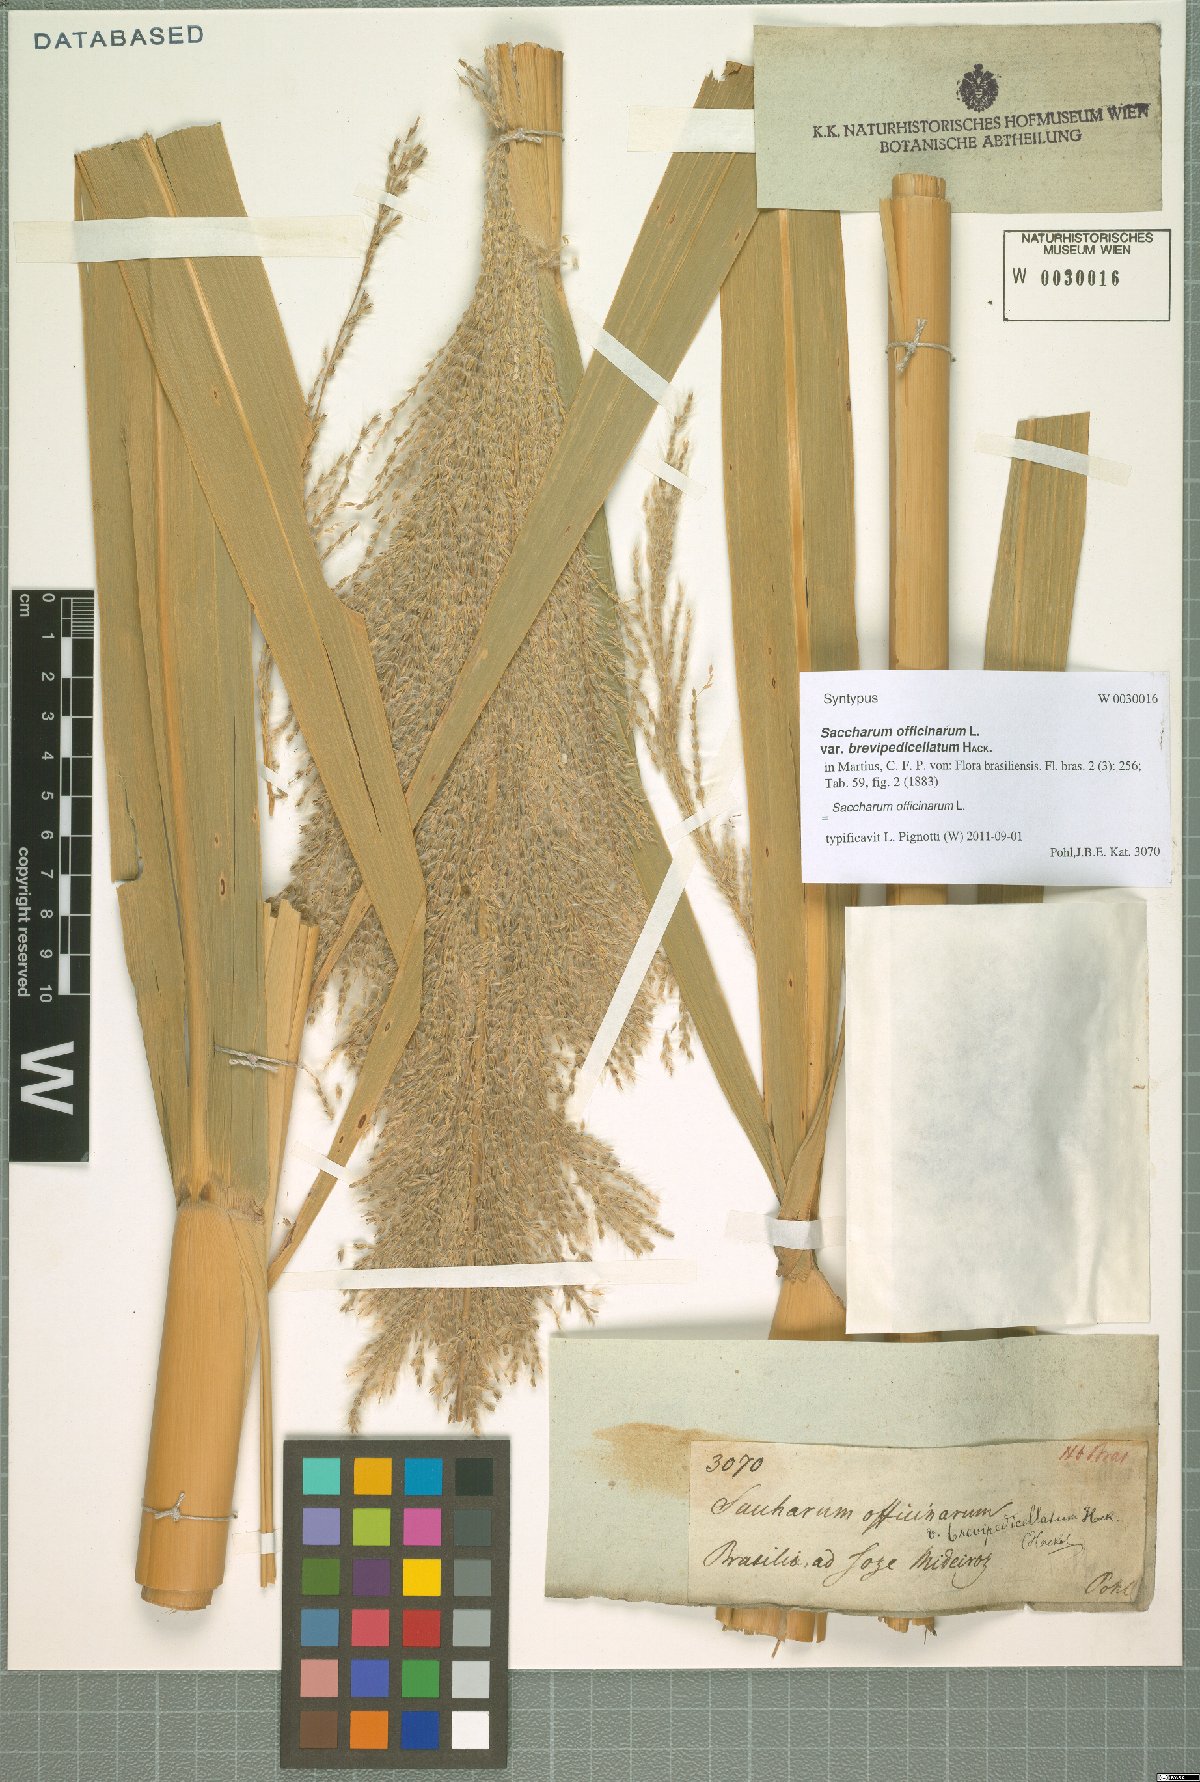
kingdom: Plantae
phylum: Tracheophyta
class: Liliopsida
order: Poales
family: Poaceae
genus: Saccharum
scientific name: Saccharum officinarum
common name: Sugarcane
